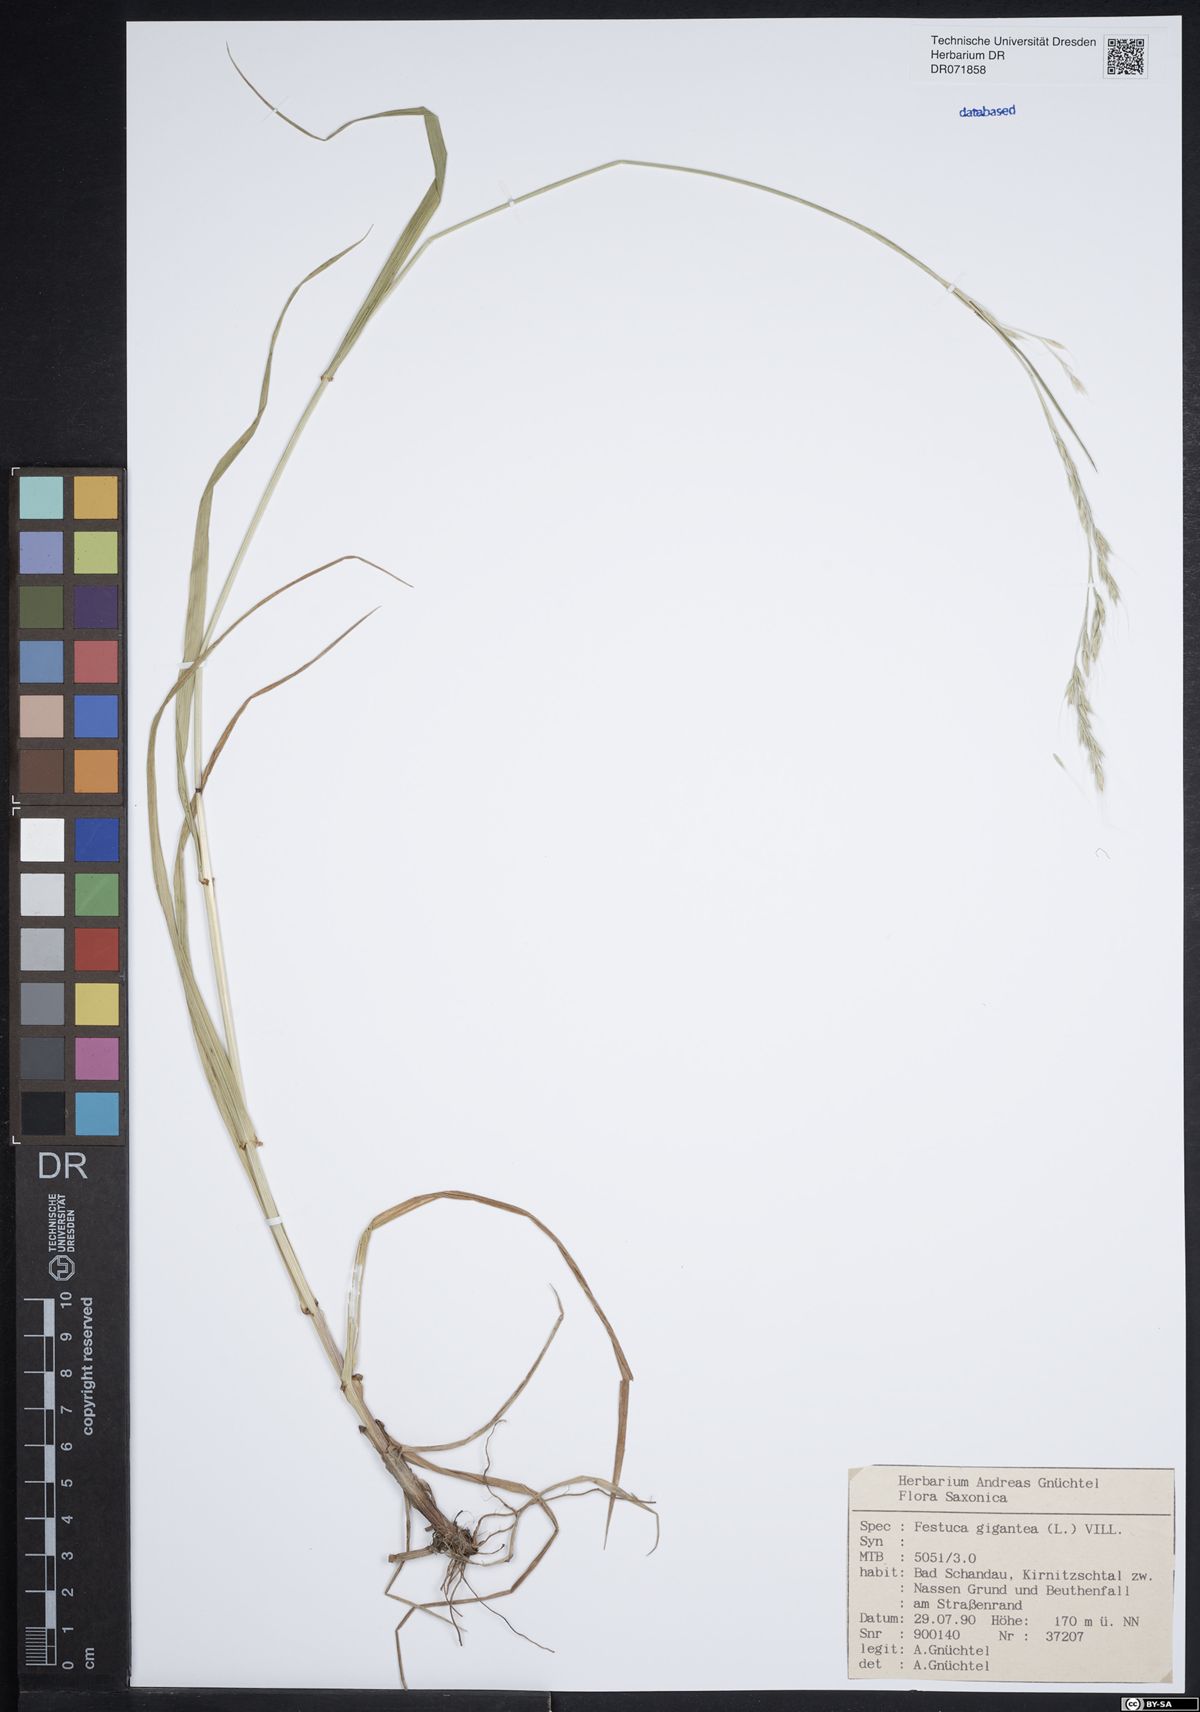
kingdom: Plantae
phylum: Tracheophyta
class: Liliopsida
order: Poales
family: Poaceae
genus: Lolium
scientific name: Lolium giganteum
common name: Giant fescue
